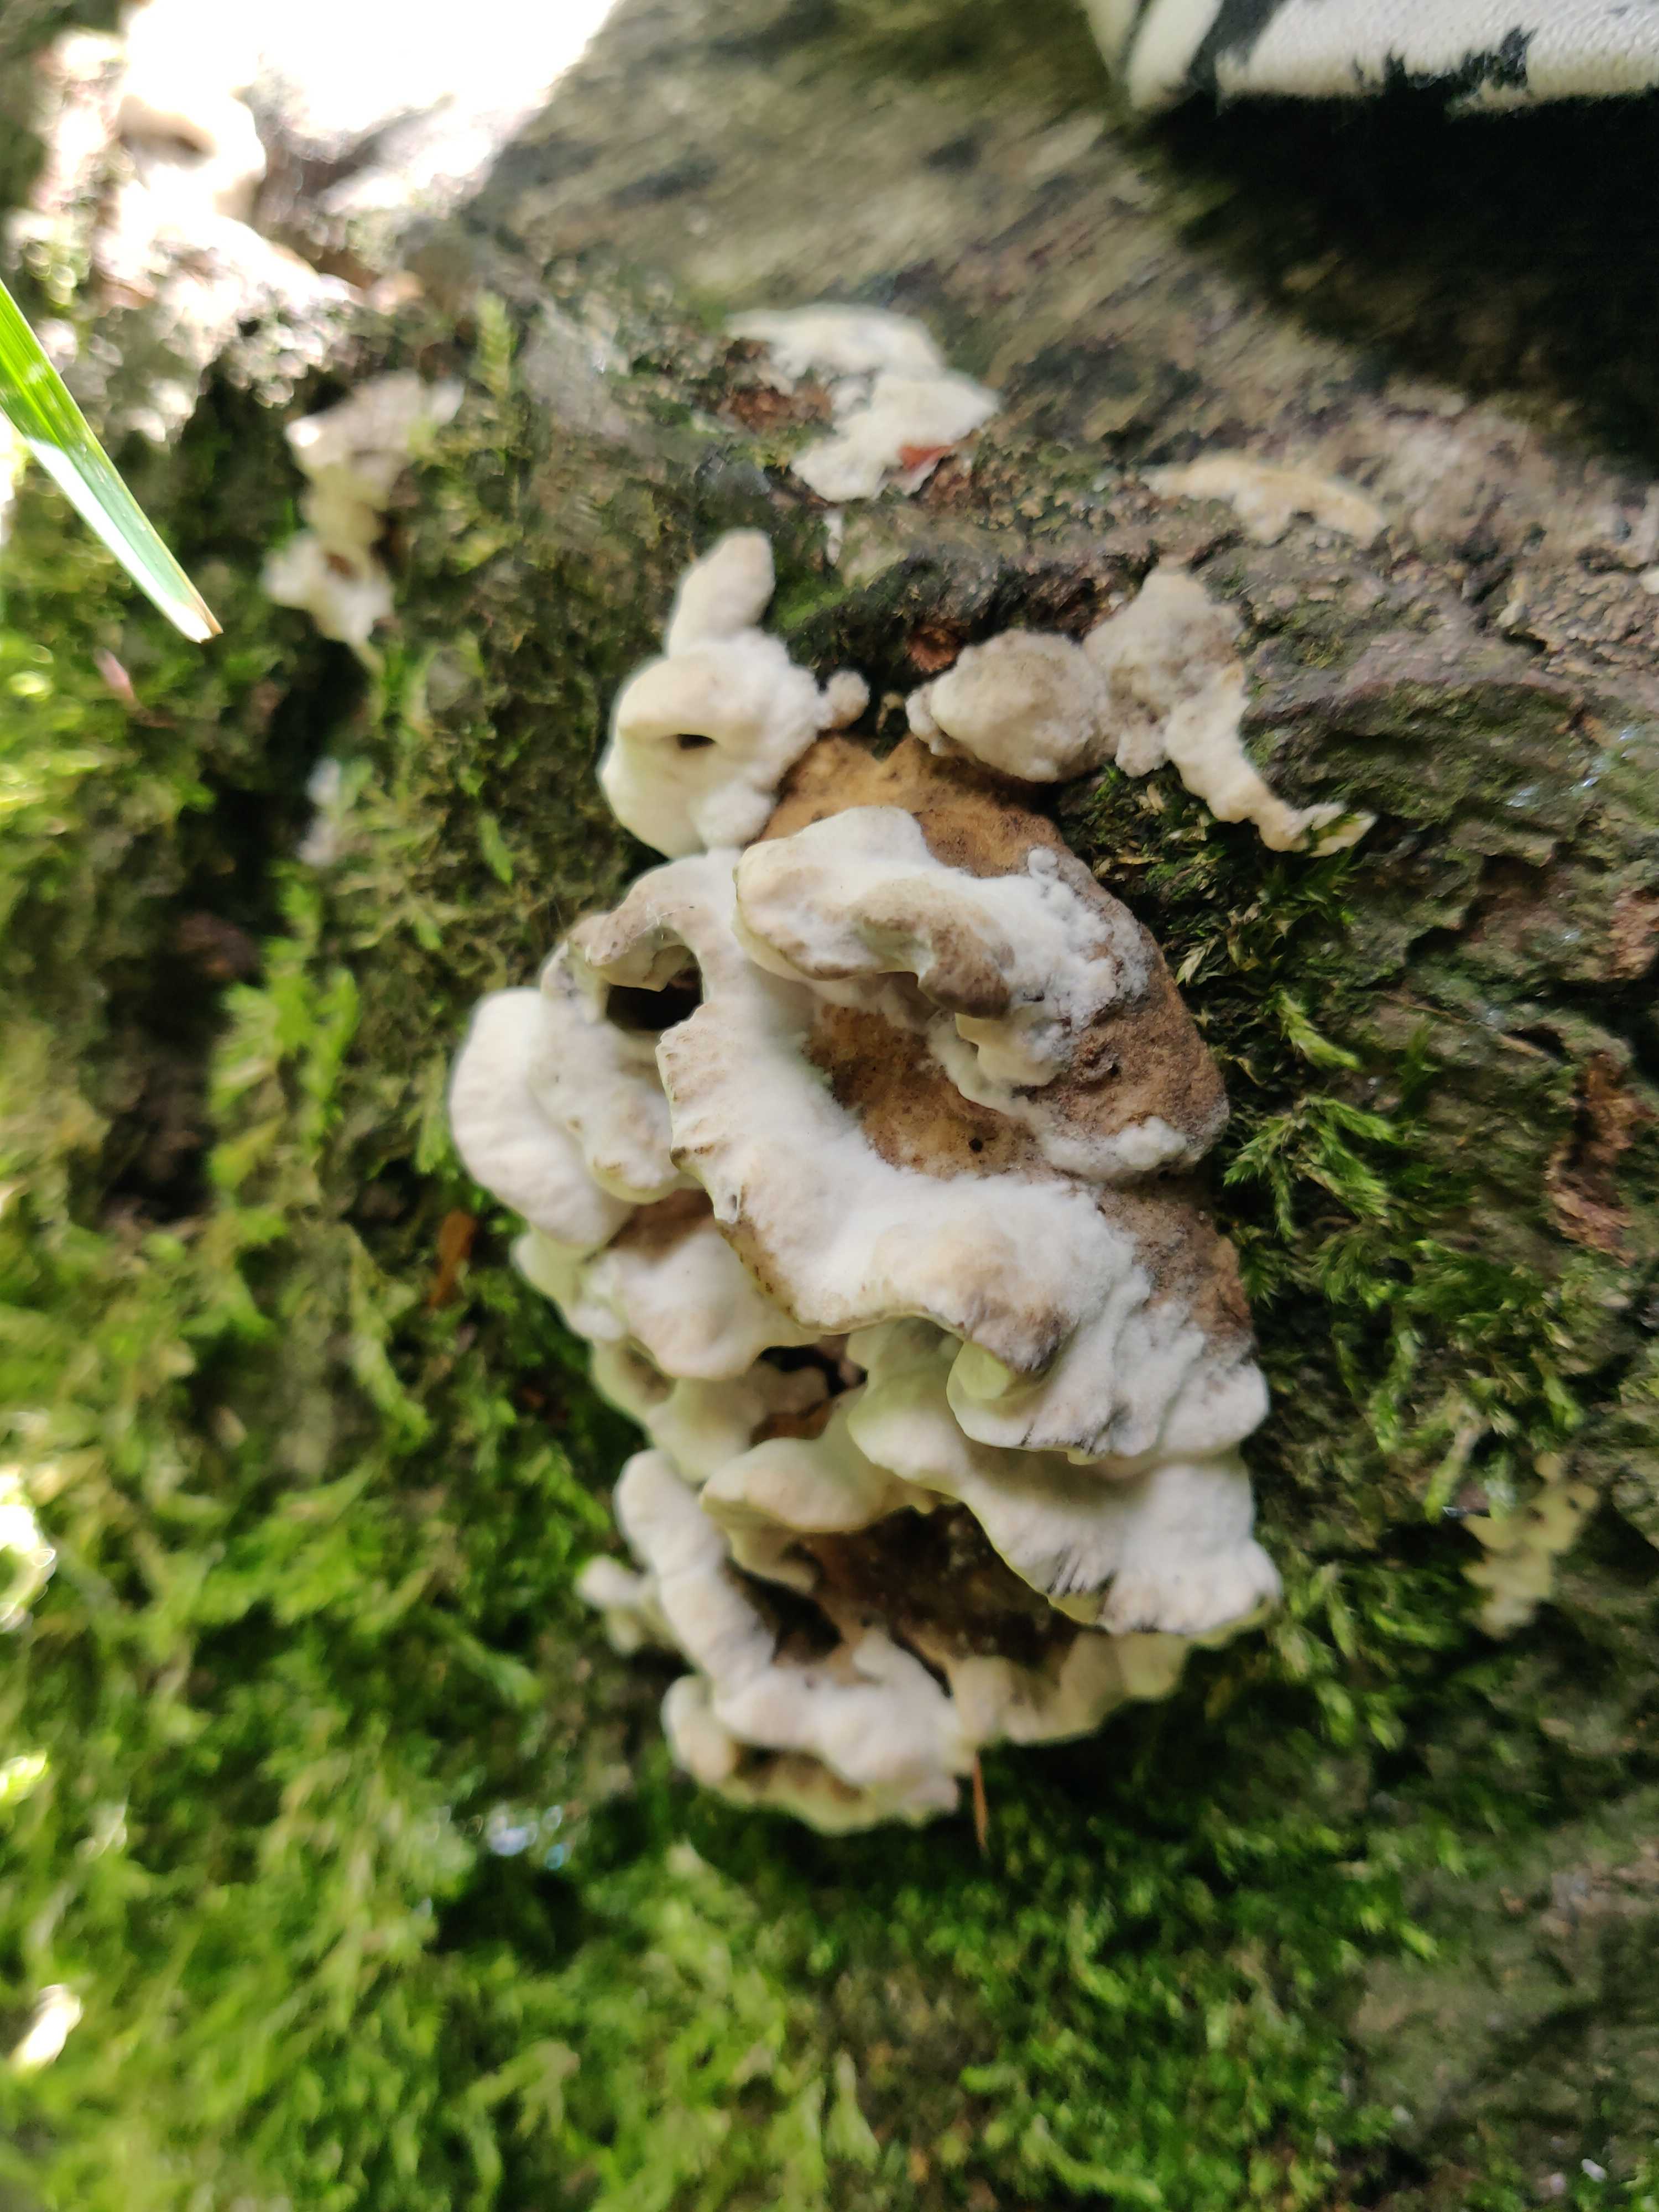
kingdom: Fungi
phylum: Basidiomycota
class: Agaricomycetes
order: Polyporales
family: Phanerochaetaceae
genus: Bjerkandera
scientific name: Bjerkandera adusta
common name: sveden sodporesvamp
